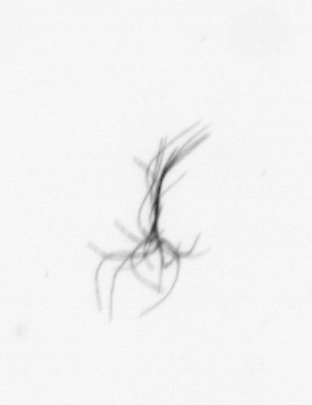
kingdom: Bacteria
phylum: Cyanobacteria
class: Cyanobacteriia
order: Cyanobacteriales
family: Microcoleaceae
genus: Trichodesmium
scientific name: Trichodesmium
